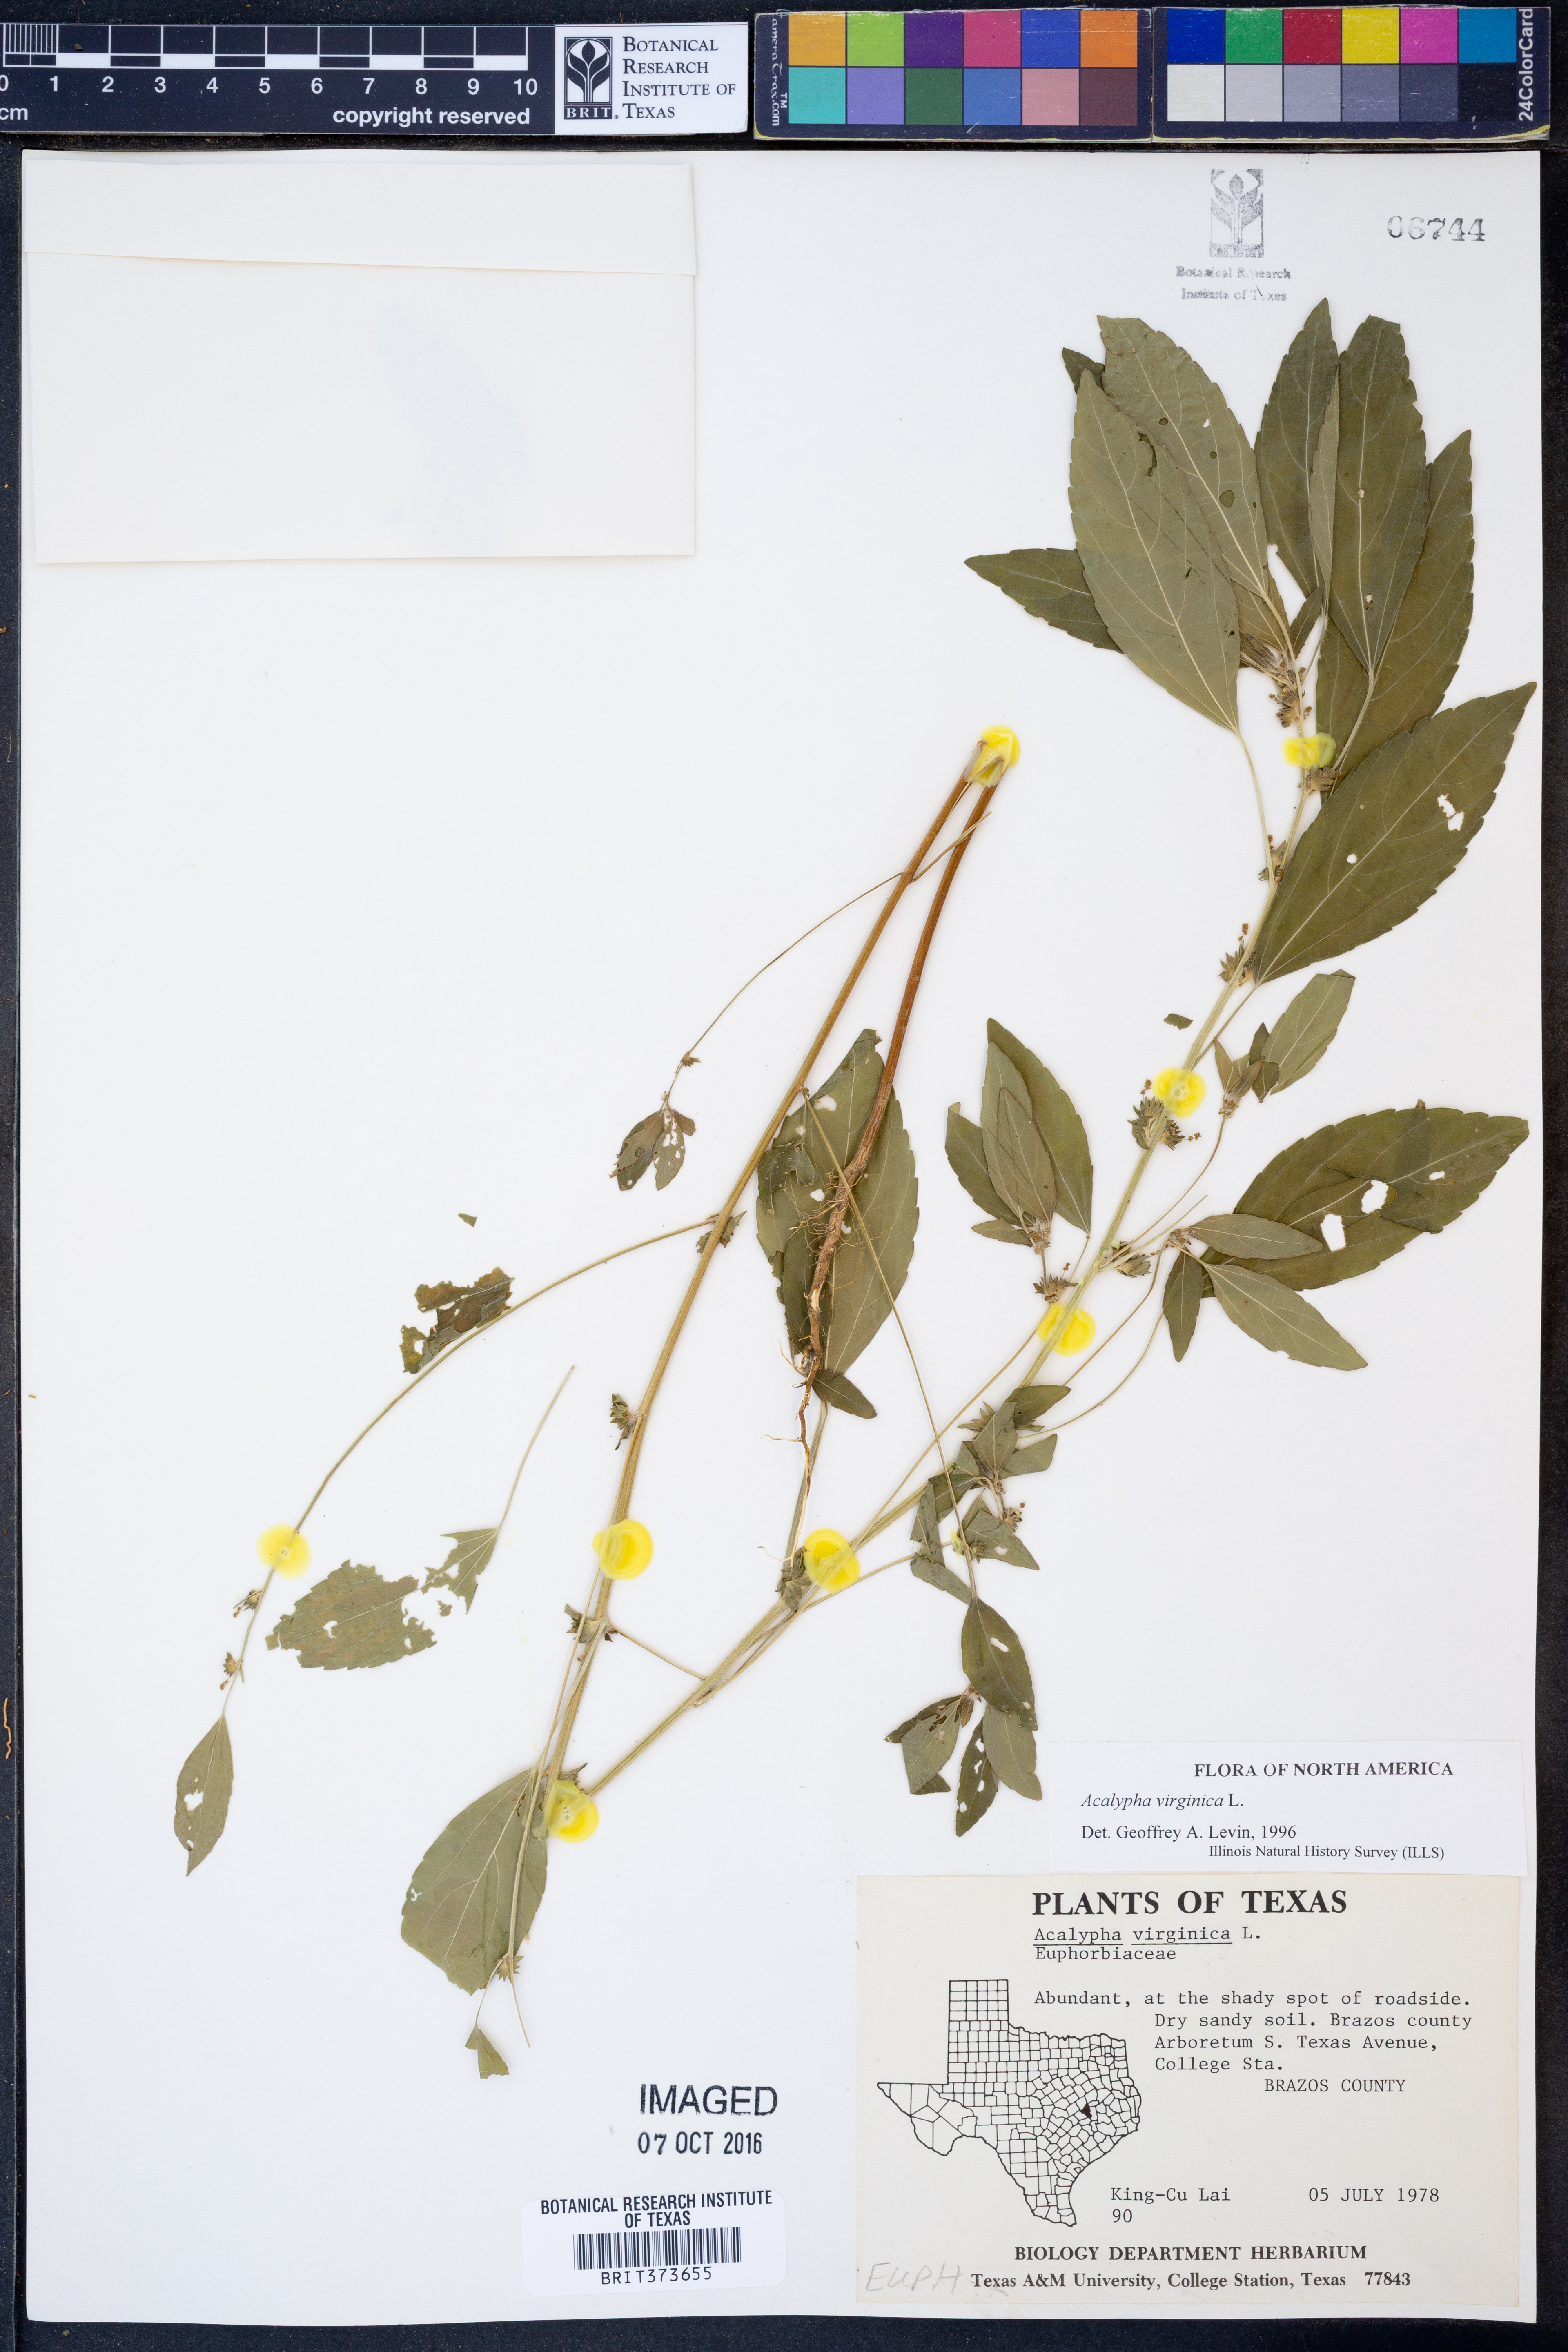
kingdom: Plantae
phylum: Tracheophyta
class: Magnoliopsida
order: Malpighiales
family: Euphorbiaceae
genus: Acalypha
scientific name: Acalypha virginica
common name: Virginia copperleaf
